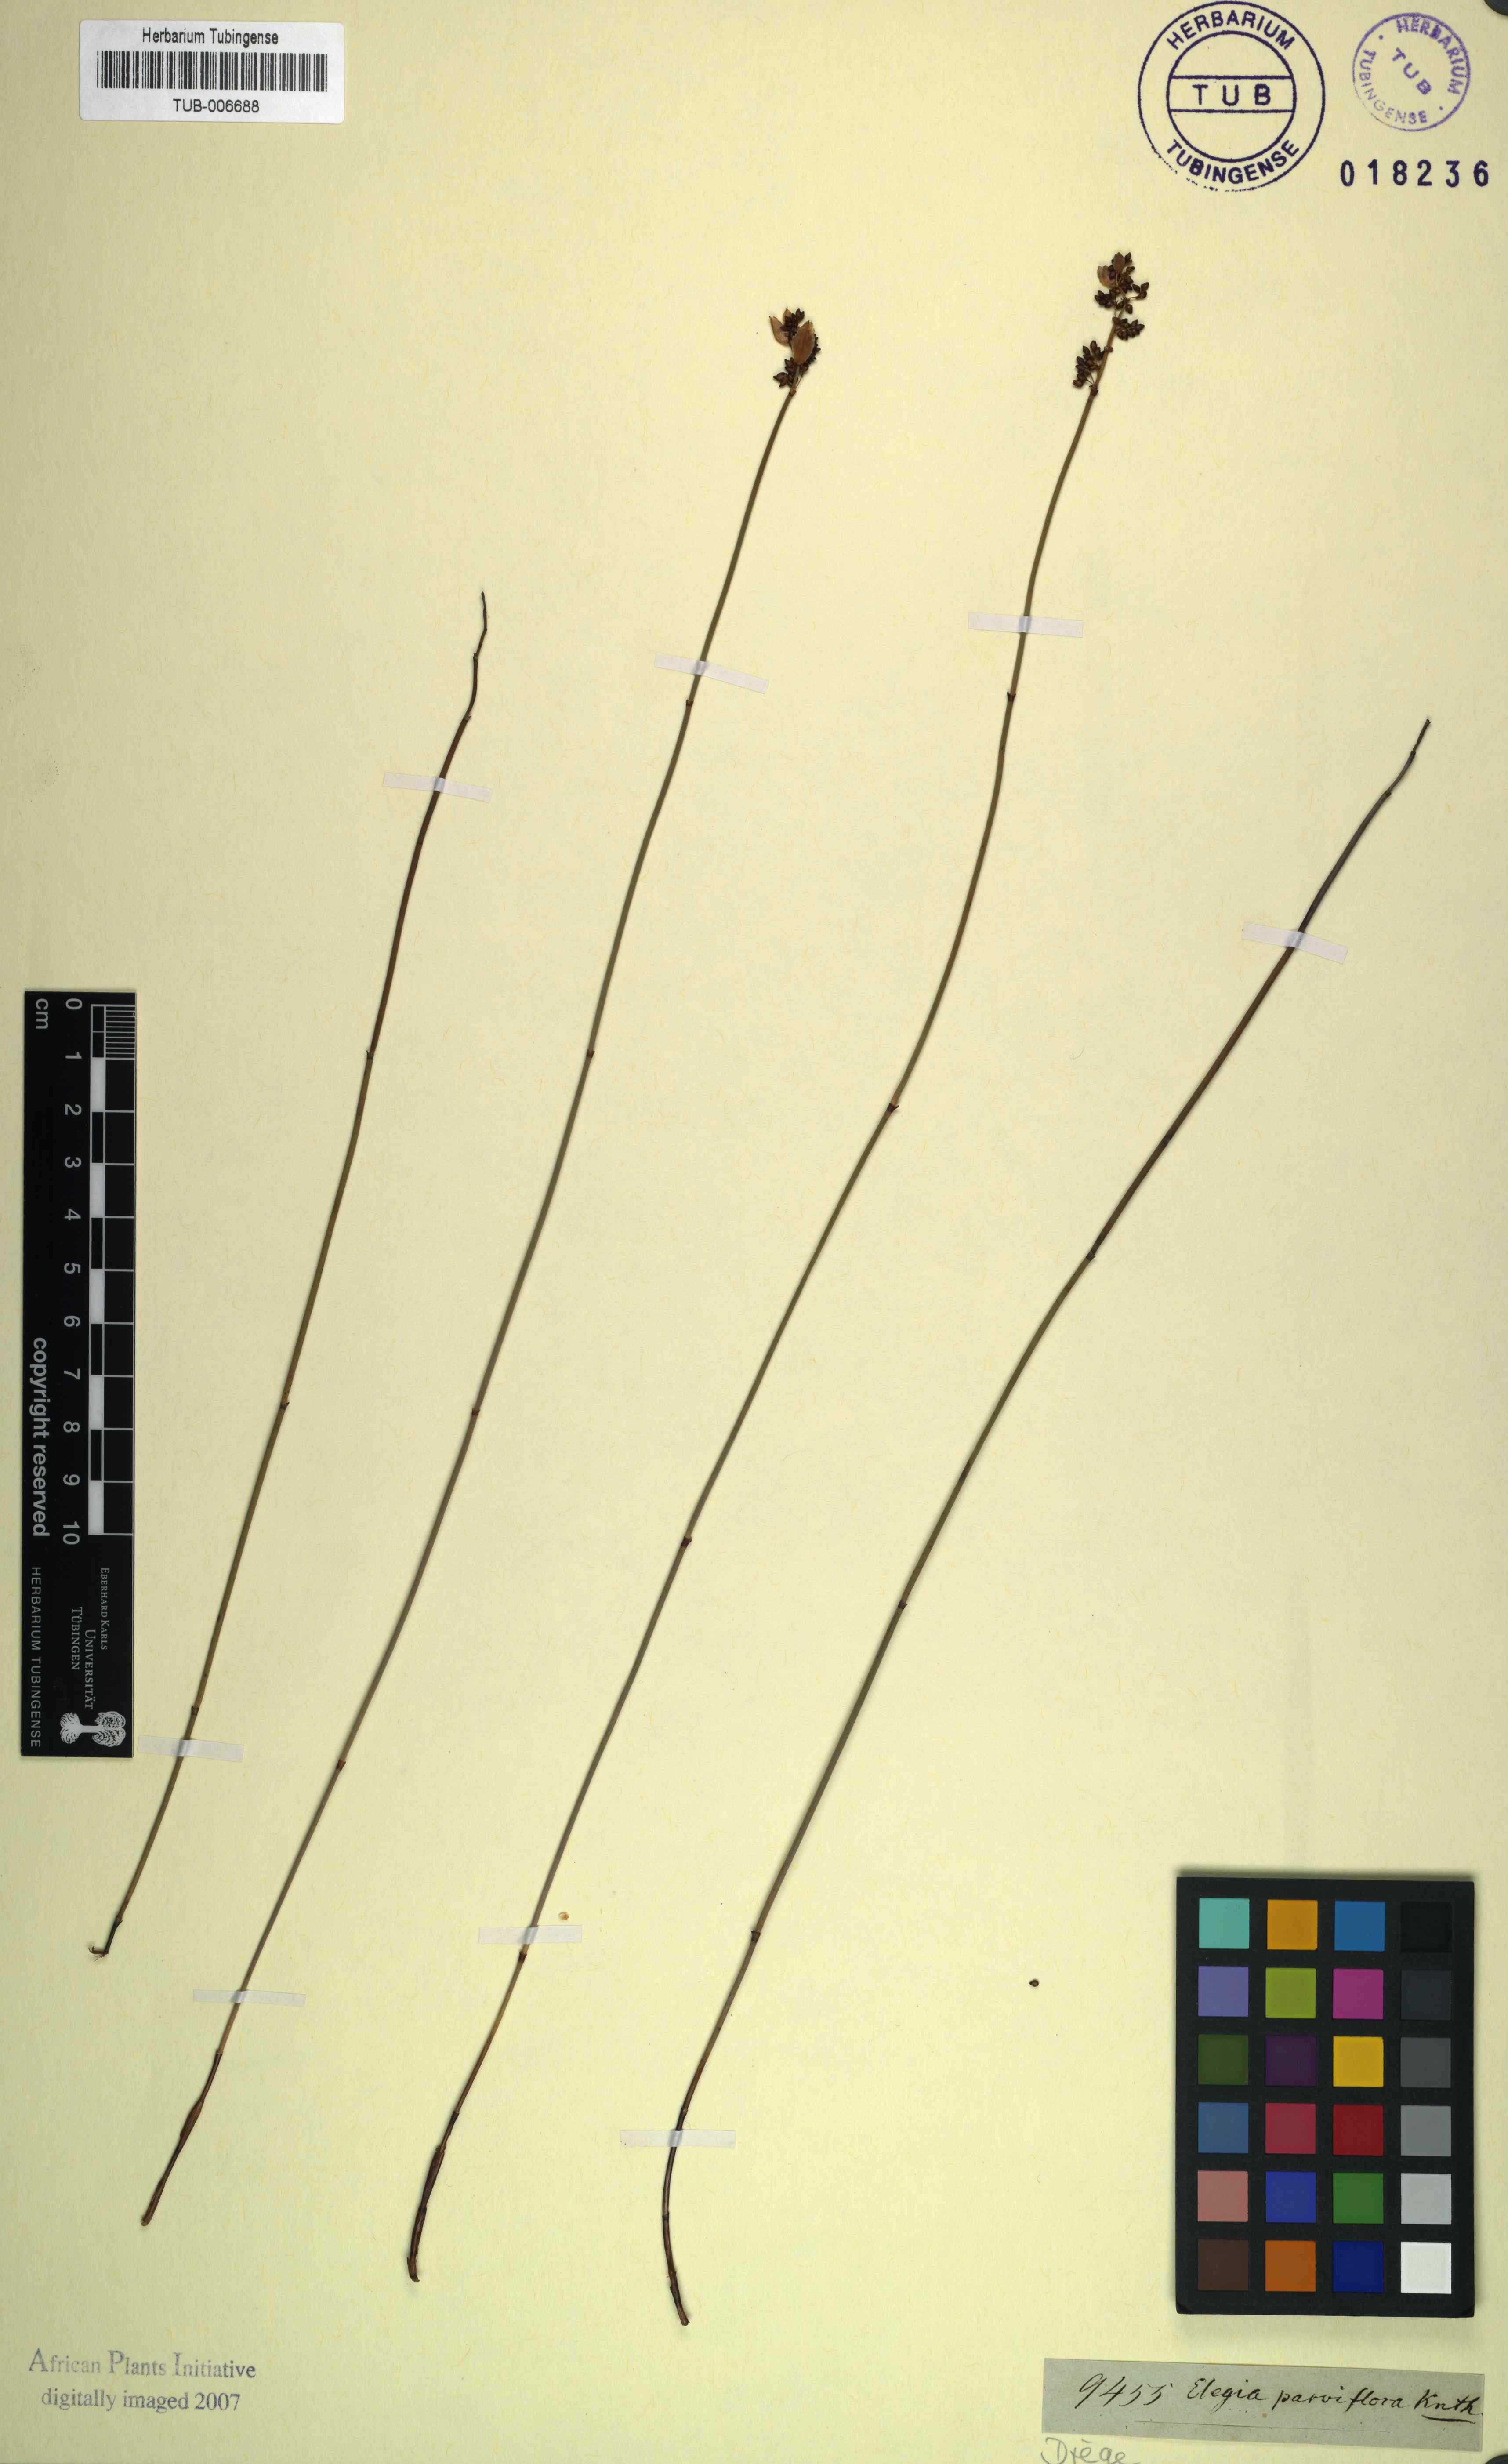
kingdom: Plantae
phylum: Tracheophyta
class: Liliopsida
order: Poales
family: Restionaceae
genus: Cannomois
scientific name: Cannomois parviflora
